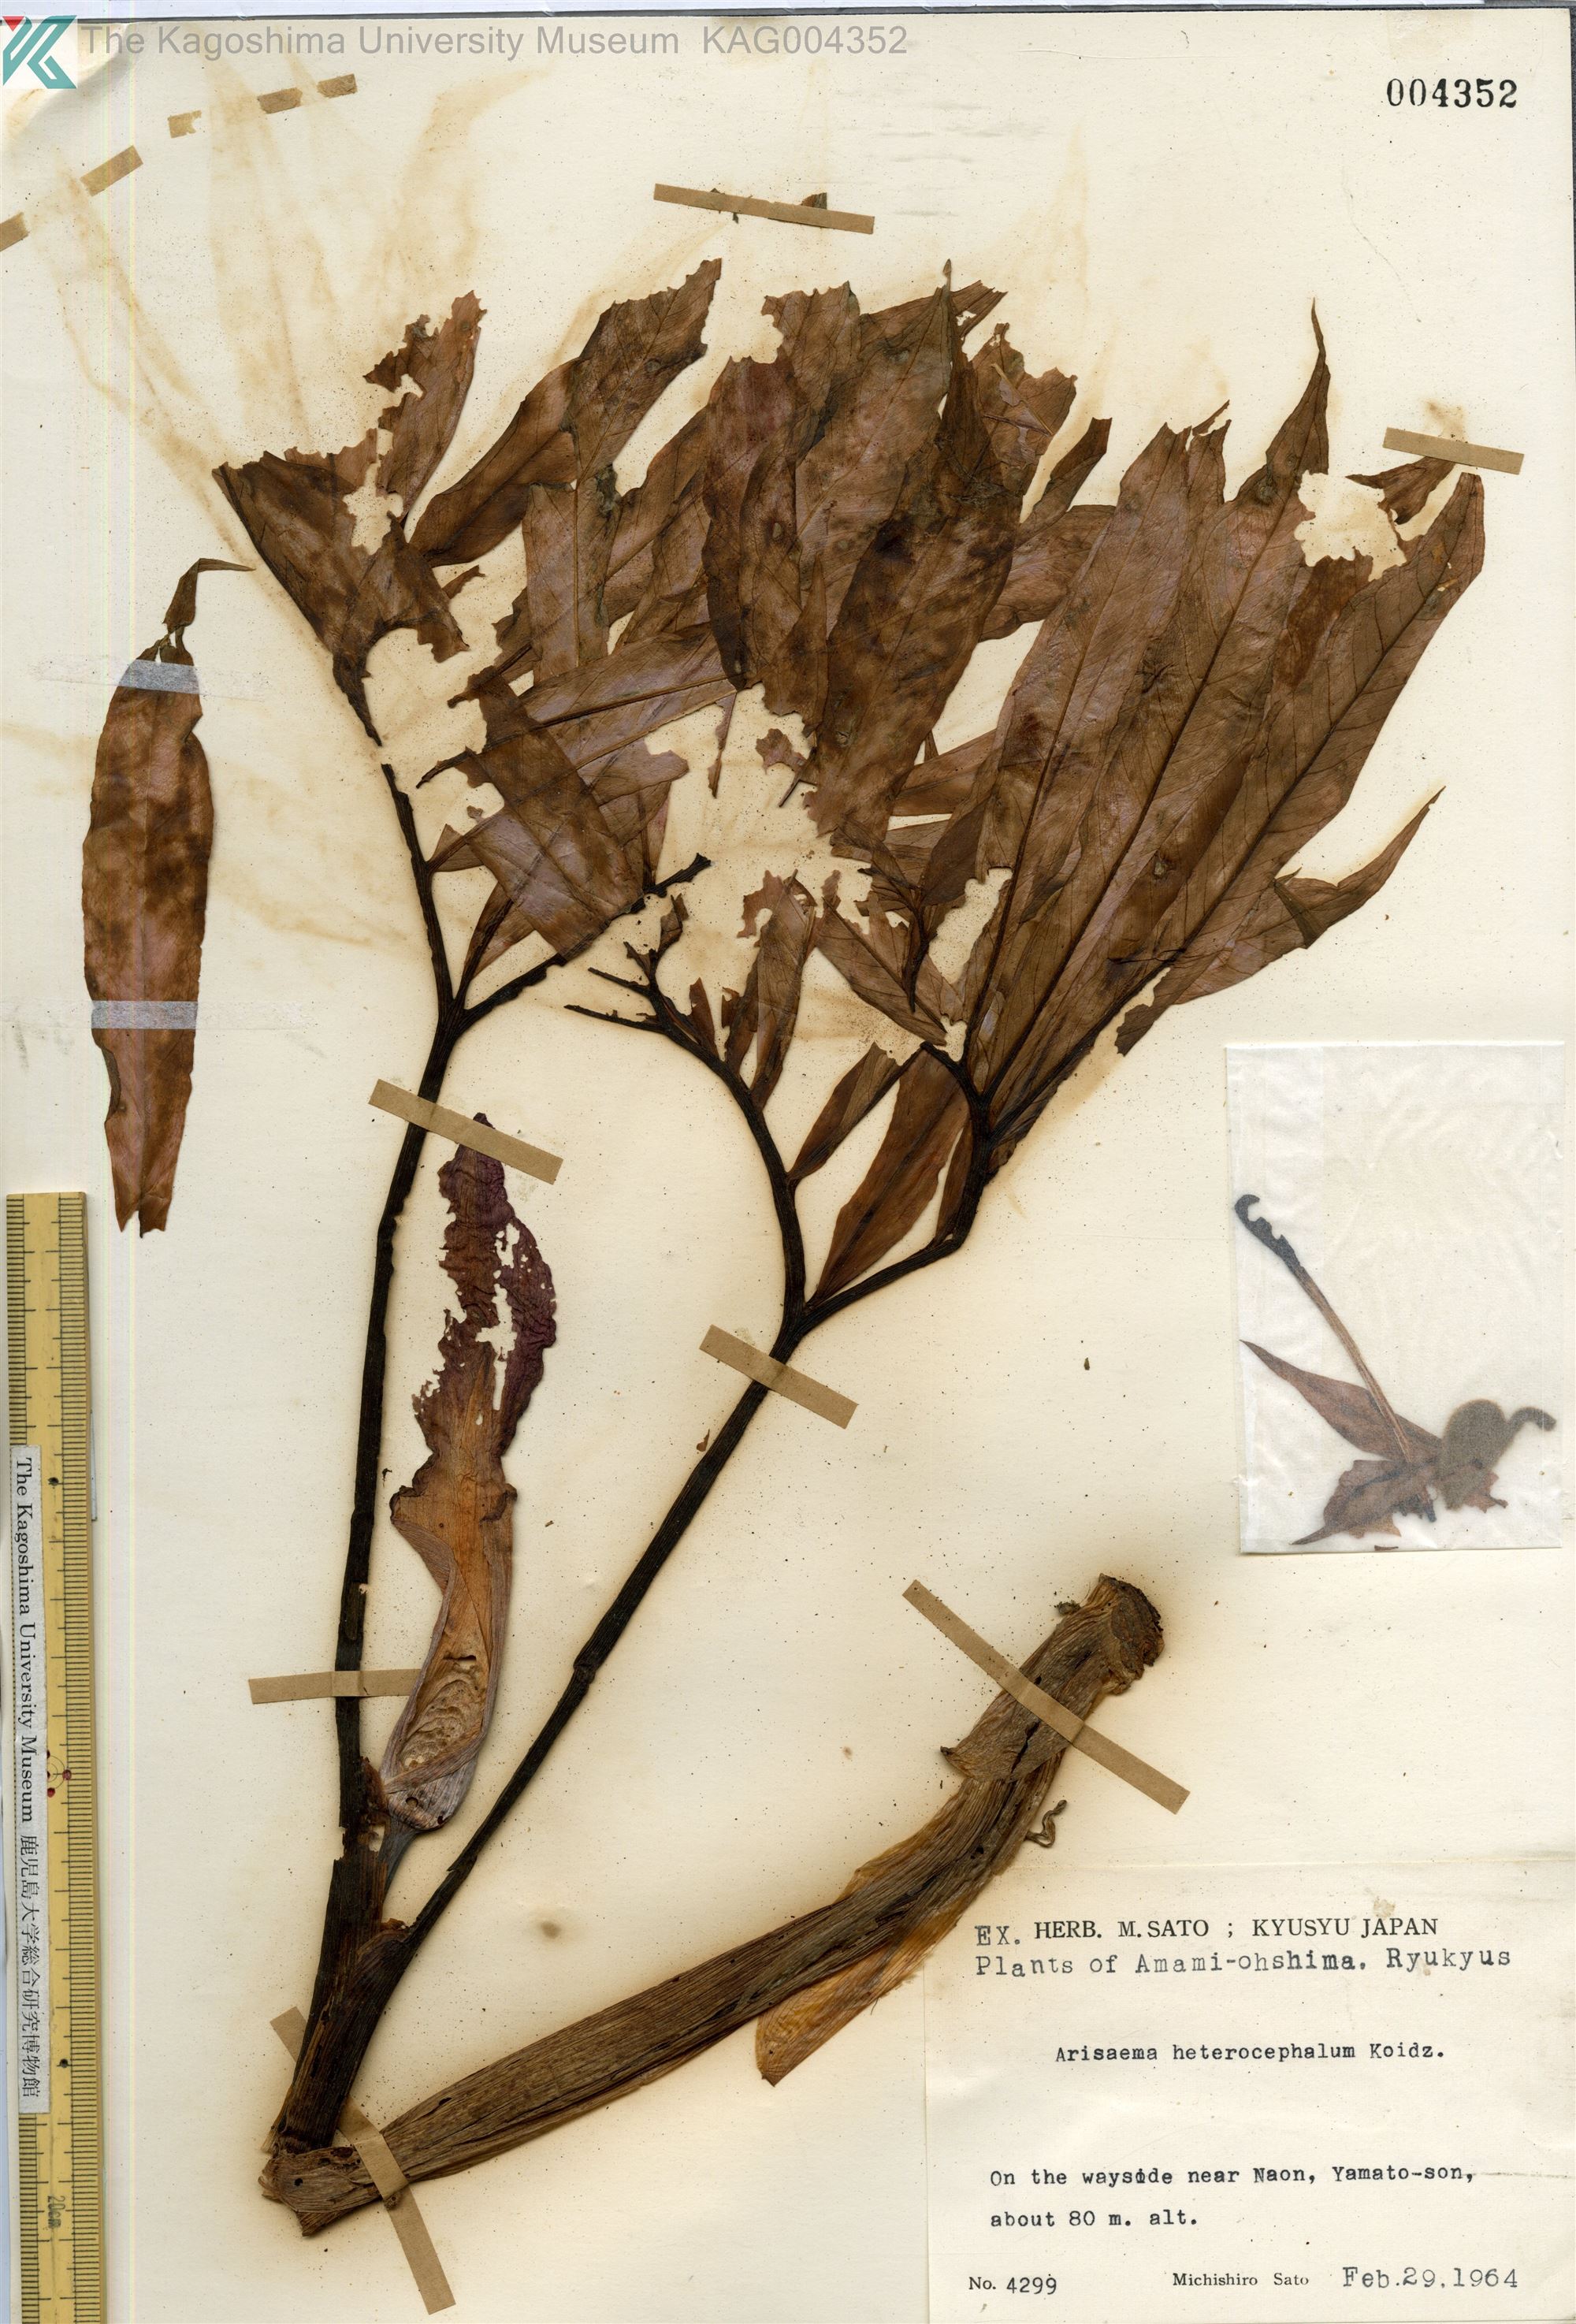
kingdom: Plantae
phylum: Tracheophyta
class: Liliopsida
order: Alismatales
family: Araceae
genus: Arisaema
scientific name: Arisaema heterocephalum
